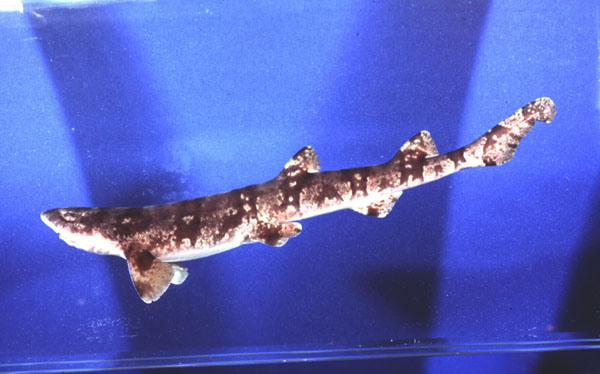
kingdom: Animalia
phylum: Chordata
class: Elasmobranchii
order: Carcharhiniformes
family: Scyliorhinidae
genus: Haploblepharus
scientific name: Haploblepharus kistnasamyi
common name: Natal shyshark
